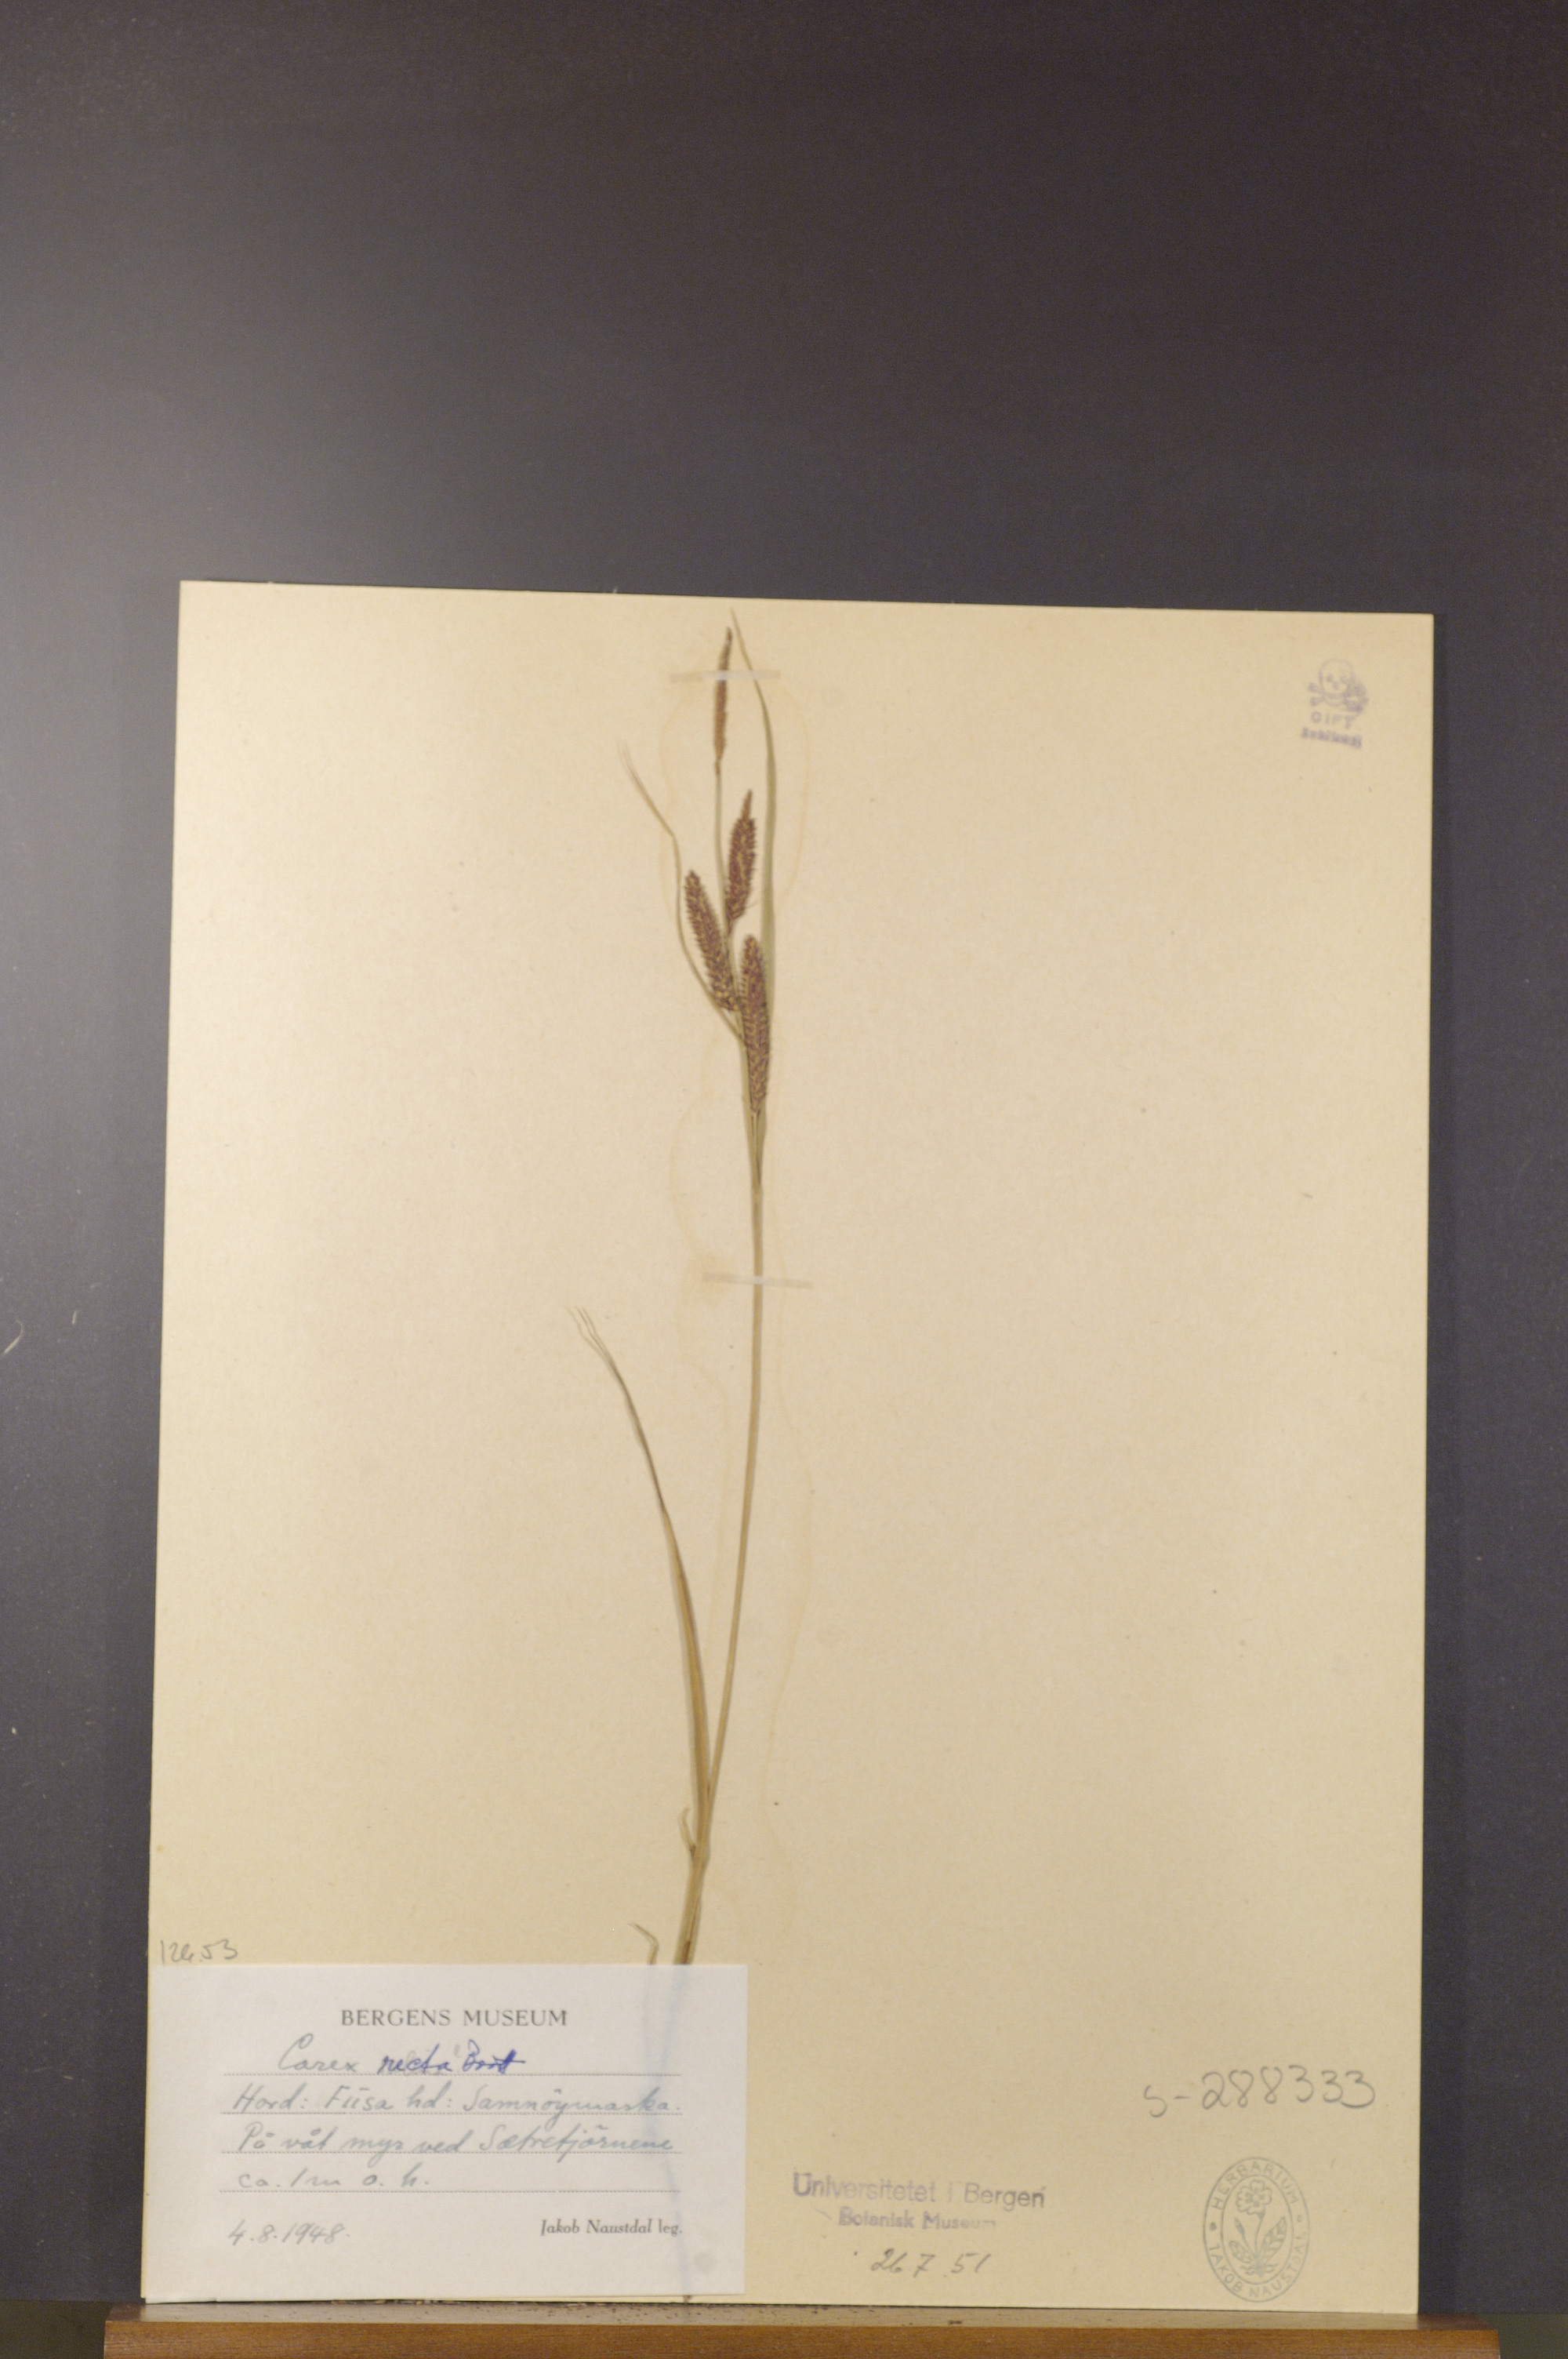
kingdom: Plantae
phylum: Tracheophyta
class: Liliopsida
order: Poales
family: Cyperaceae
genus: Carex
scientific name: Carex recta
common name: Estuarine sedge
